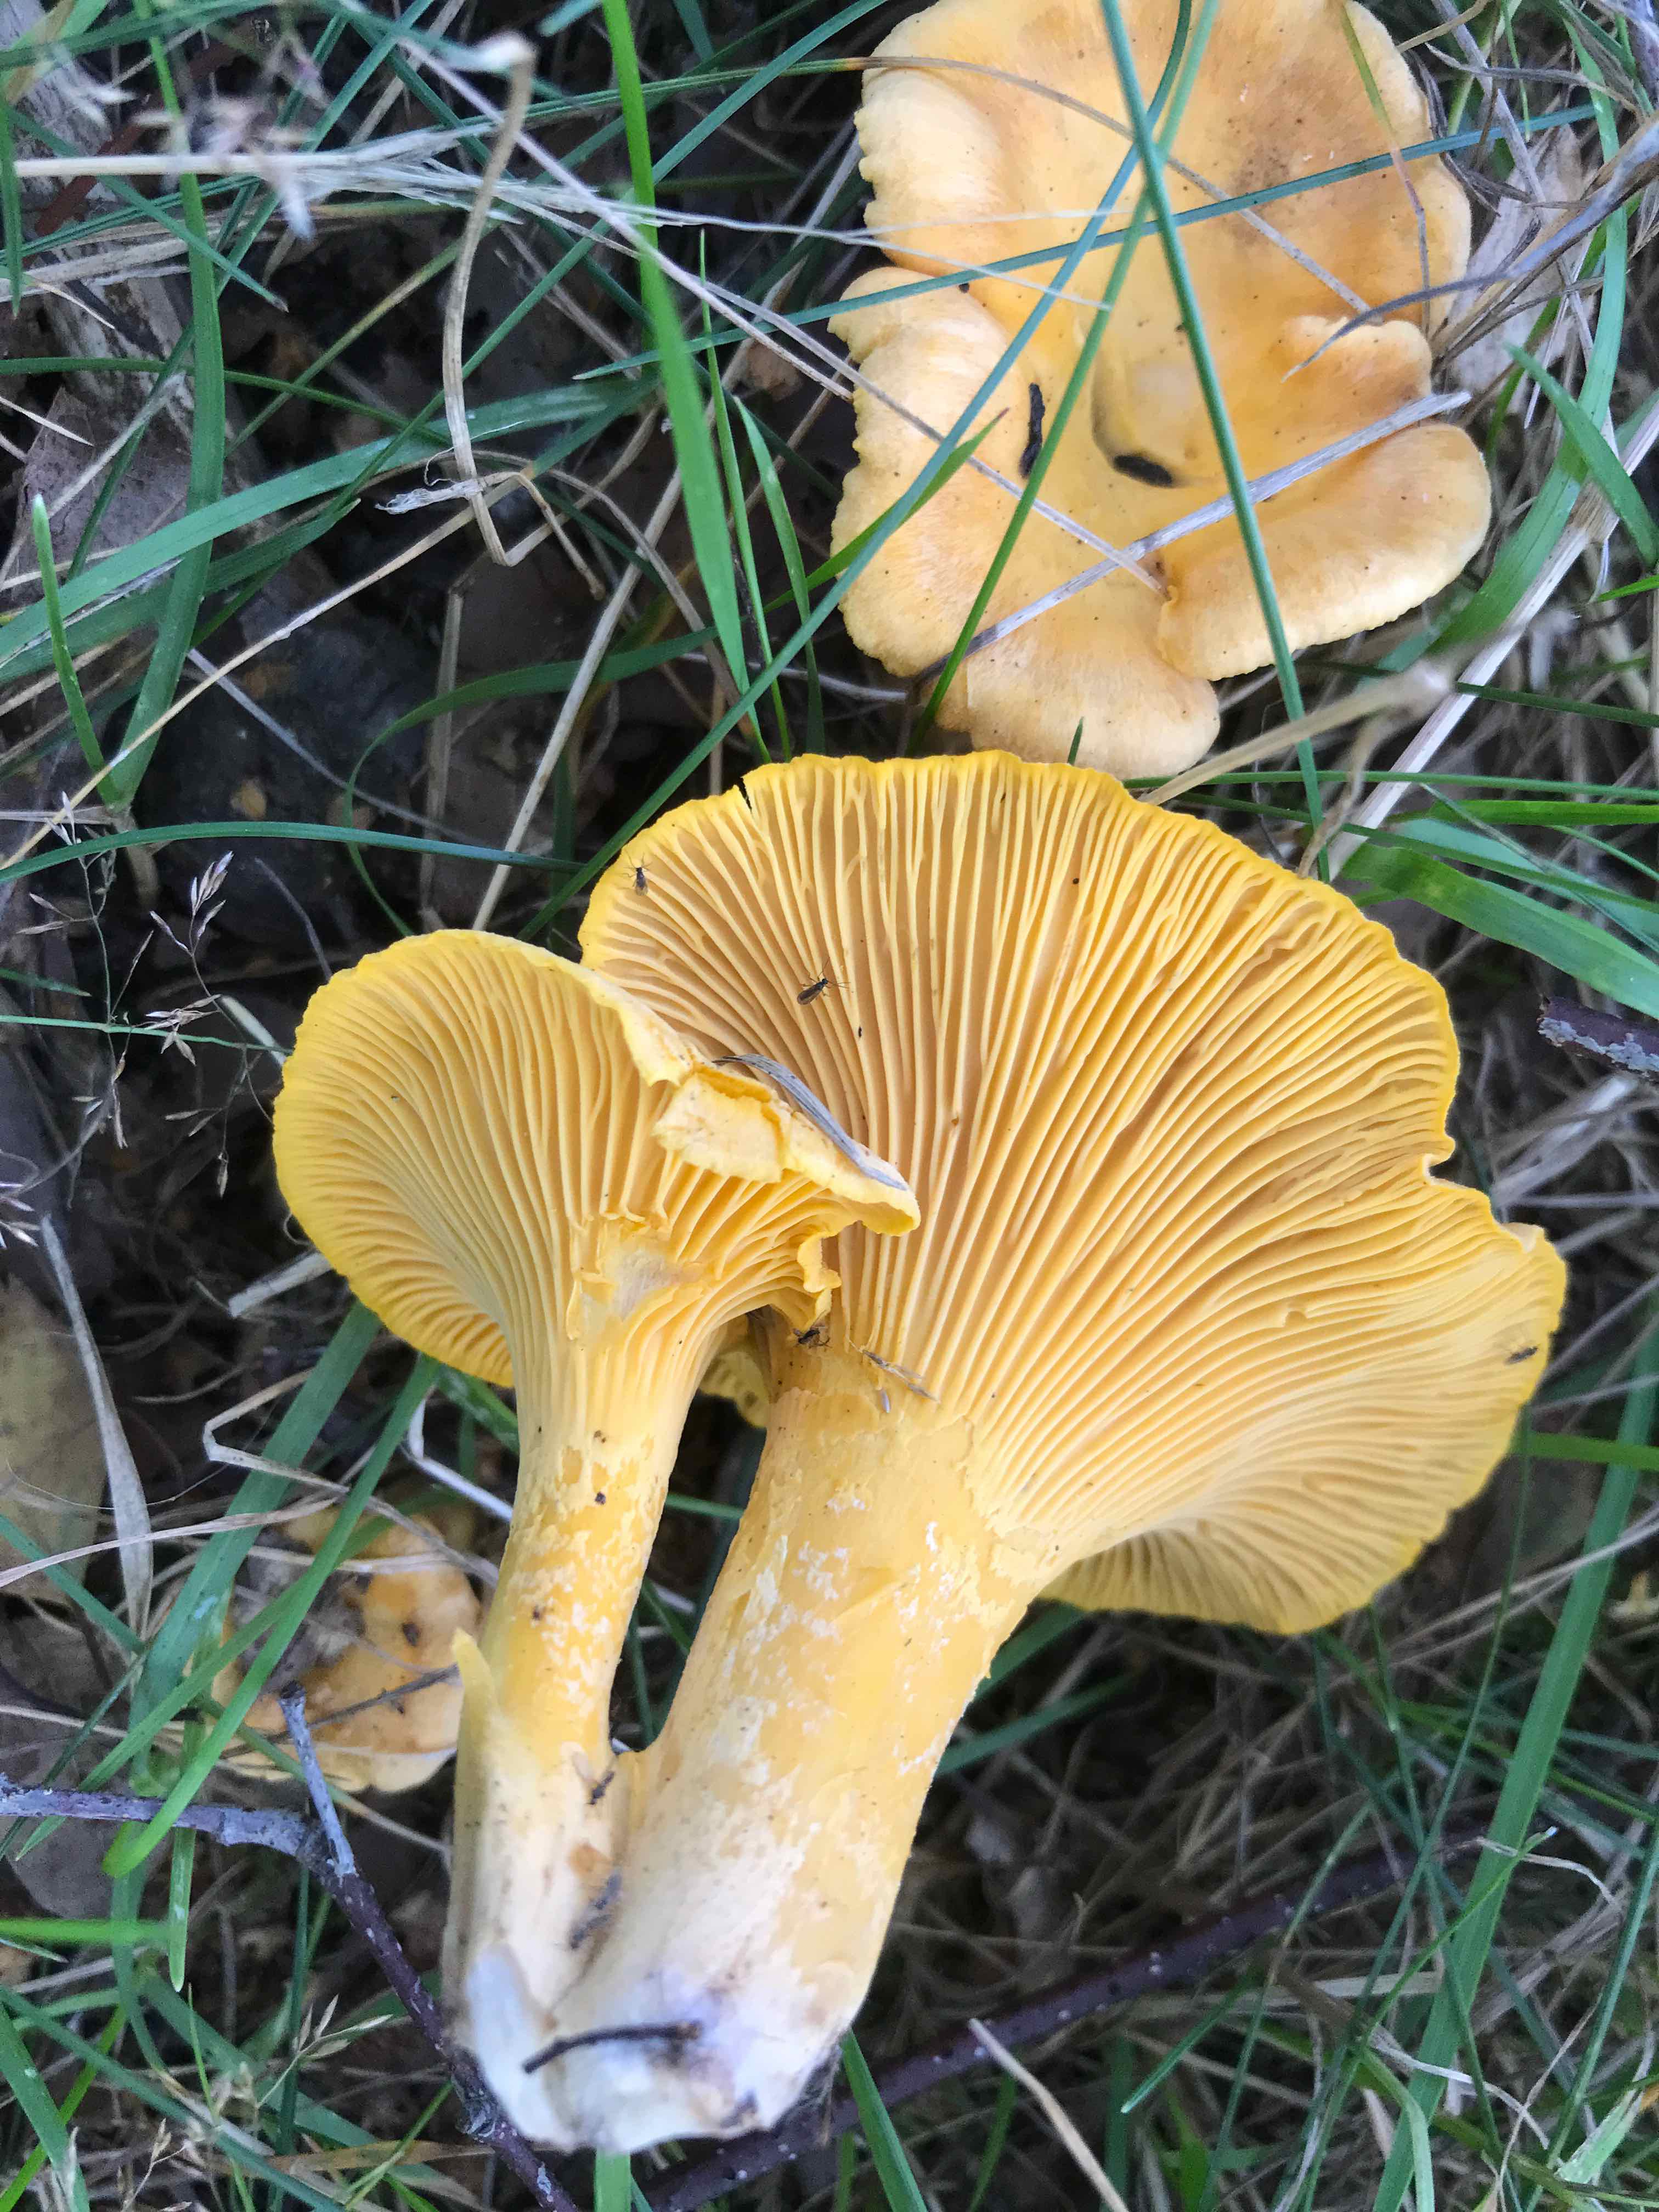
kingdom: Fungi
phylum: Basidiomycota
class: Agaricomycetes
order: Cantharellales
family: Hydnaceae
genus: Cantharellus
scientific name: Cantharellus cibarius
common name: almindelig kantarel
